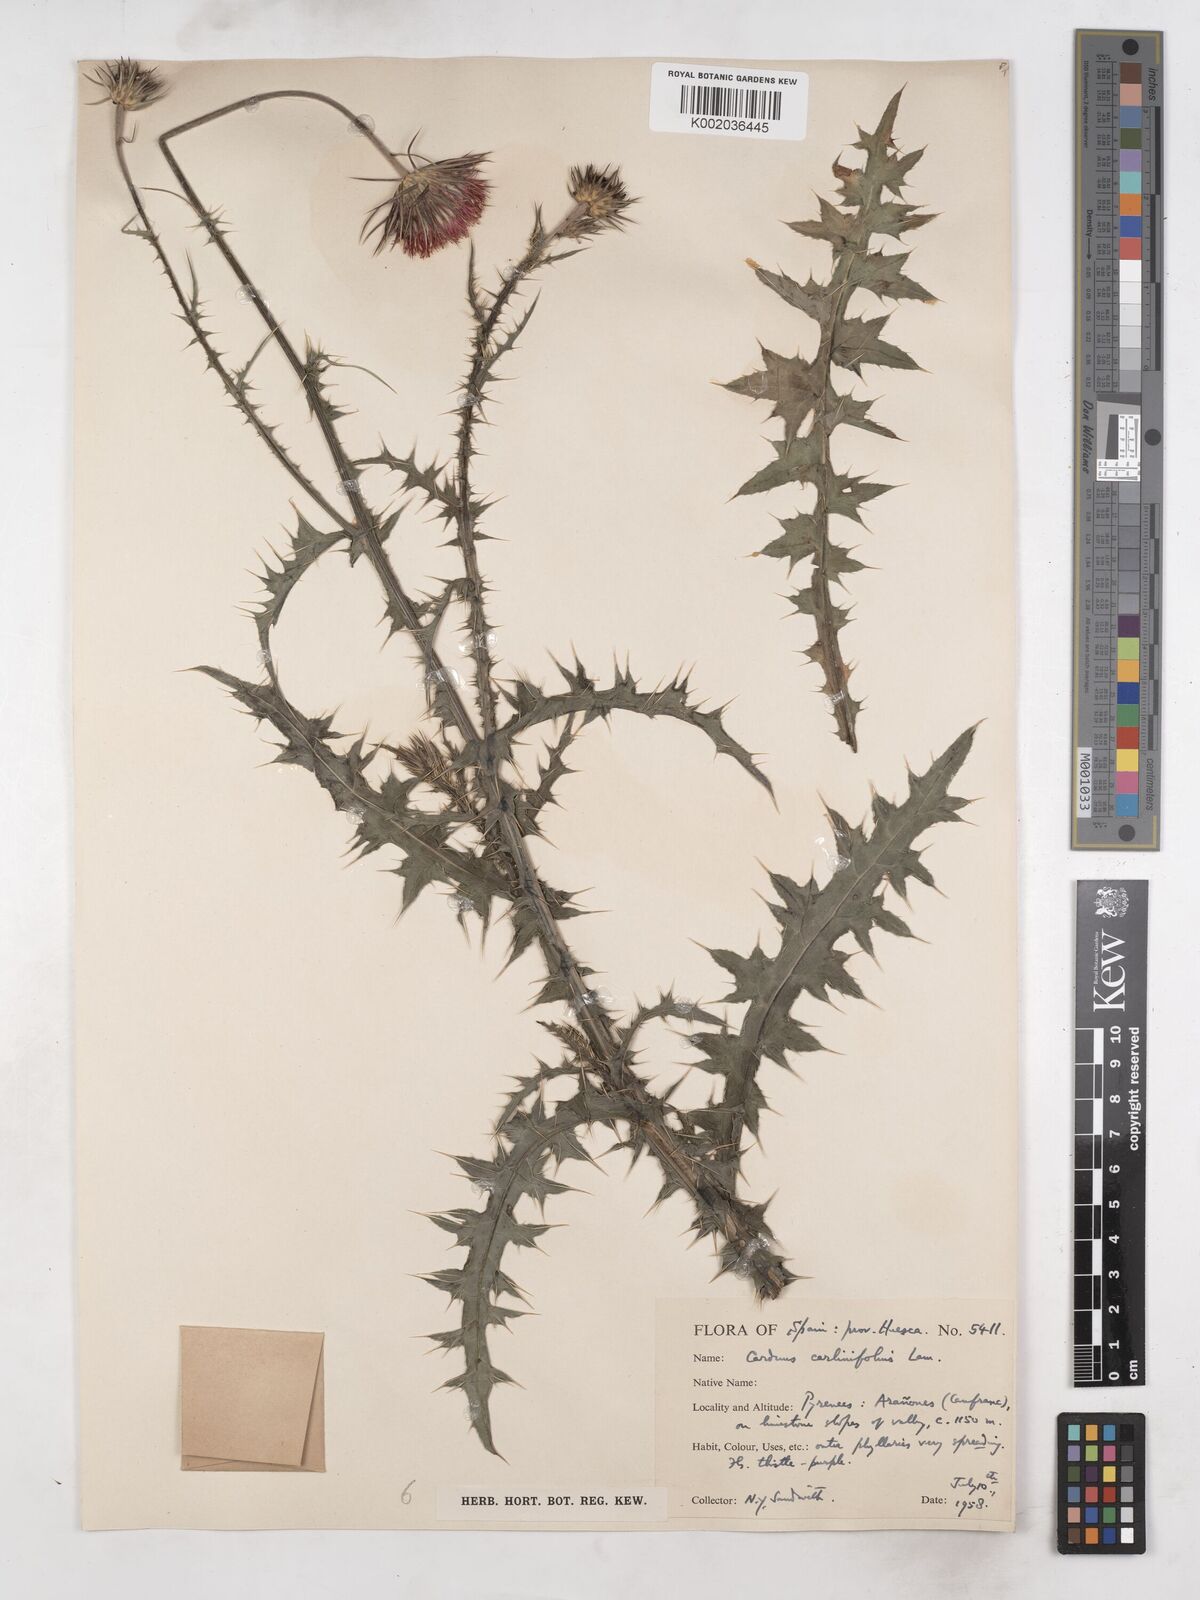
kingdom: Plantae
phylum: Tracheophyta
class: Magnoliopsida
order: Asterales
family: Asteraceae
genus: Carduus
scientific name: Carduus carlinifolius
